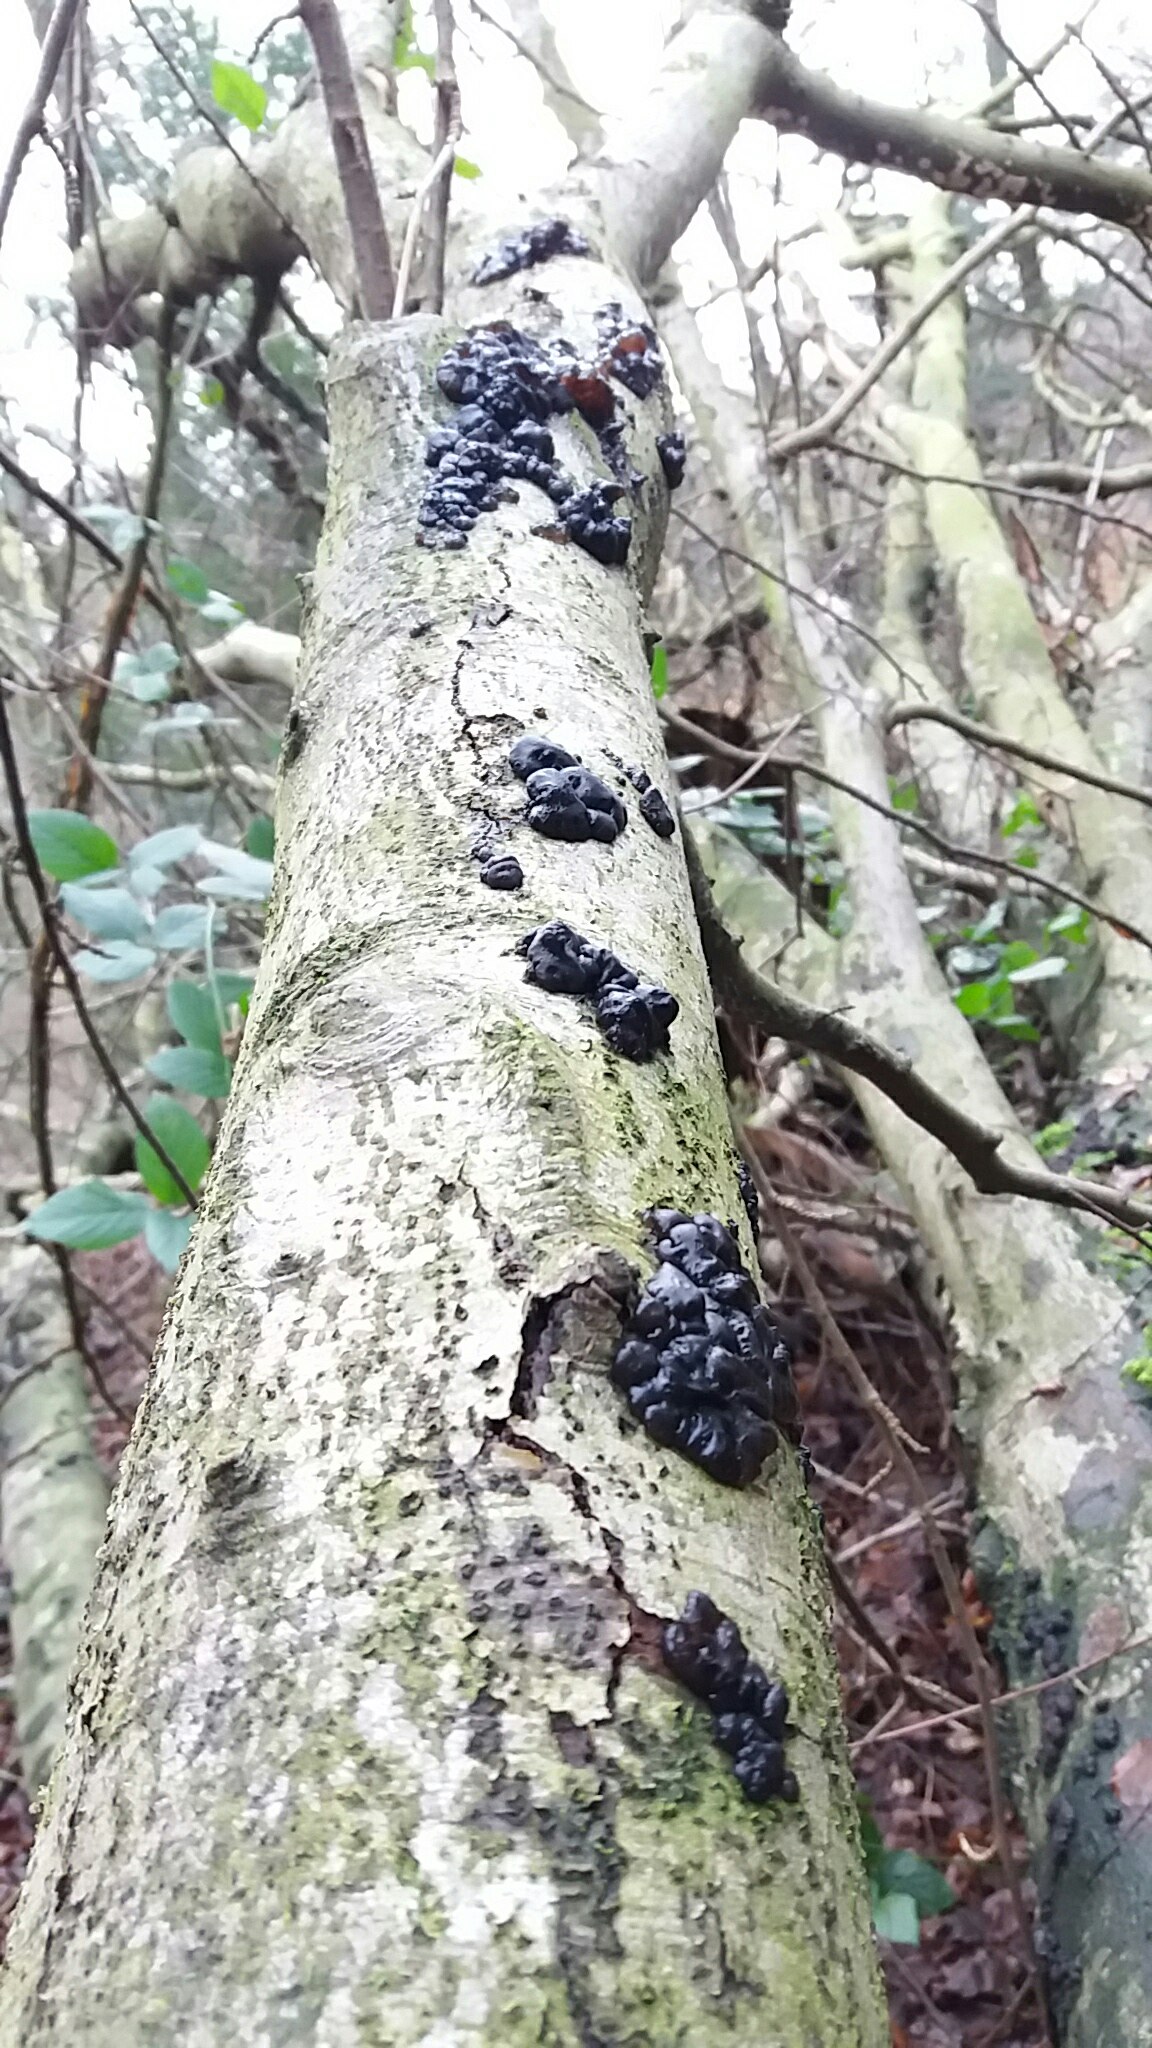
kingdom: Fungi
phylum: Basidiomycota
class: Agaricomycetes
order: Auriculariales
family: Auriculariaceae
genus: Exidia
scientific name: Exidia nigricans
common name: almindelig bævretop
